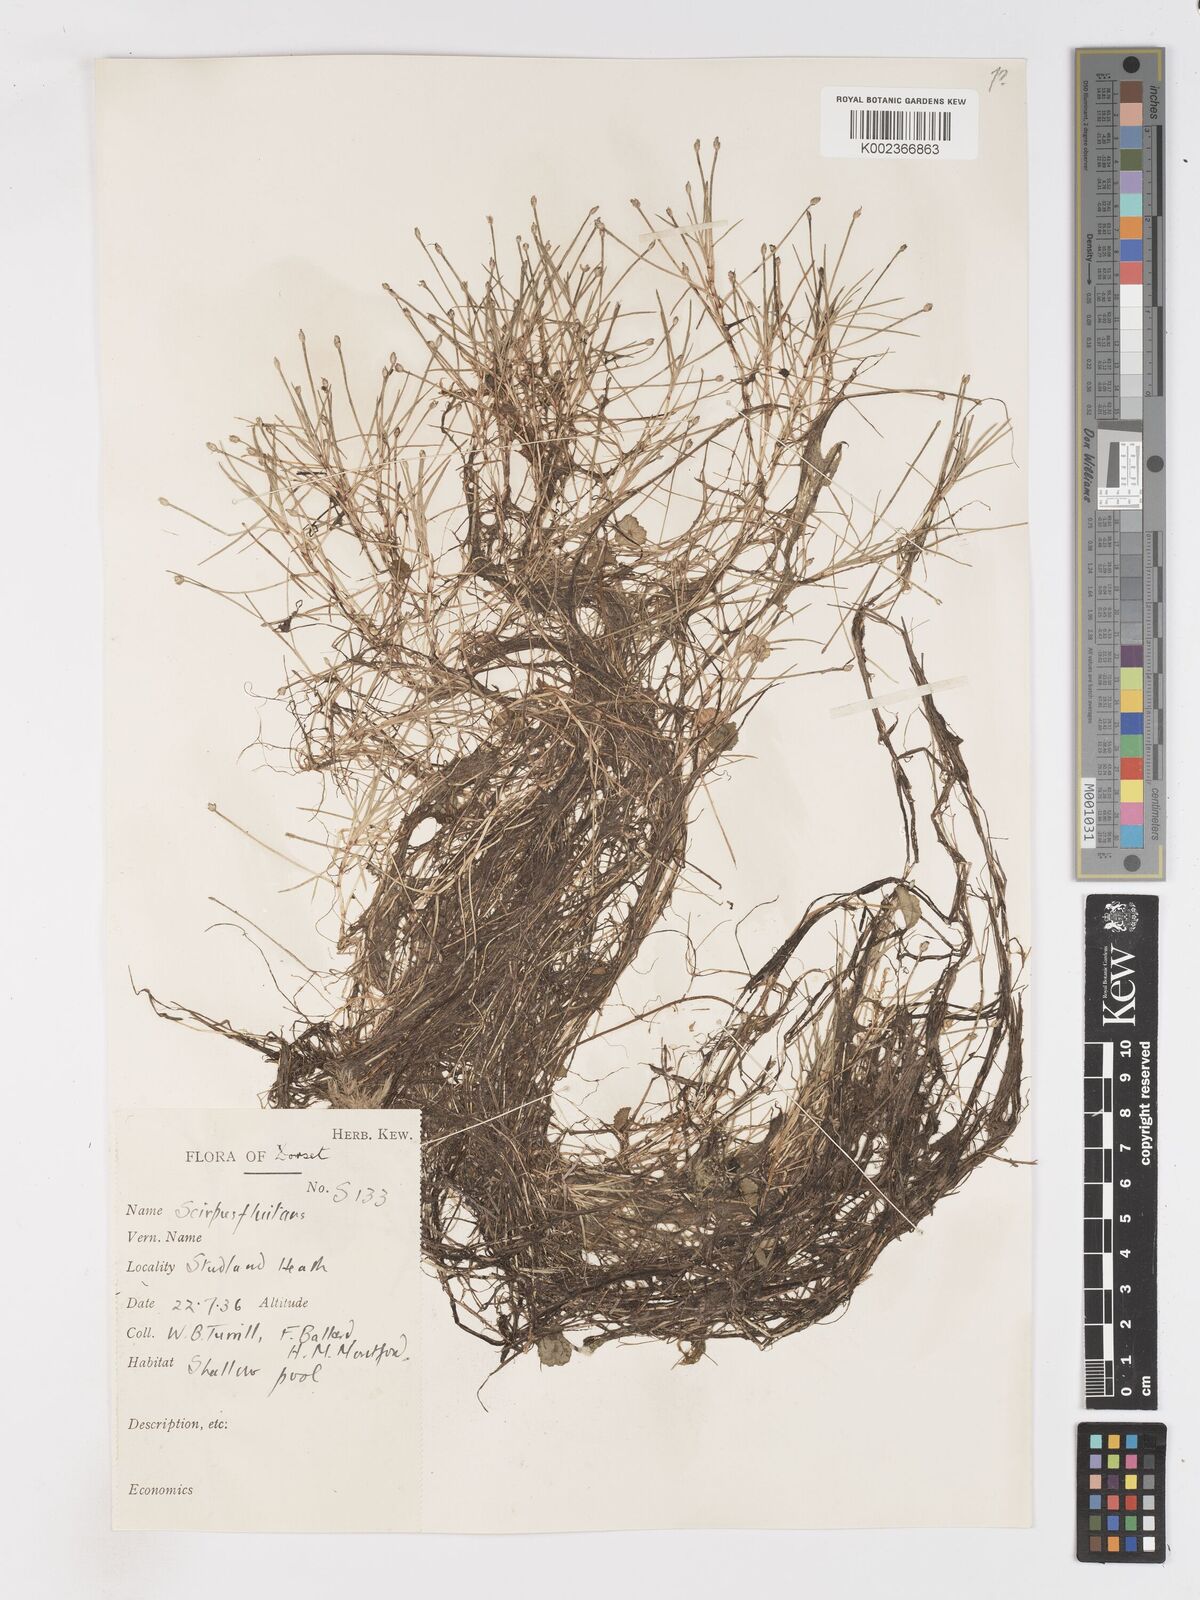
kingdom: Plantae
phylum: Tracheophyta
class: Liliopsida
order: Poales
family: Cyperaceae
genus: Isolepis
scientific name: Isolepis fluitans
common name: Floating club-rush
